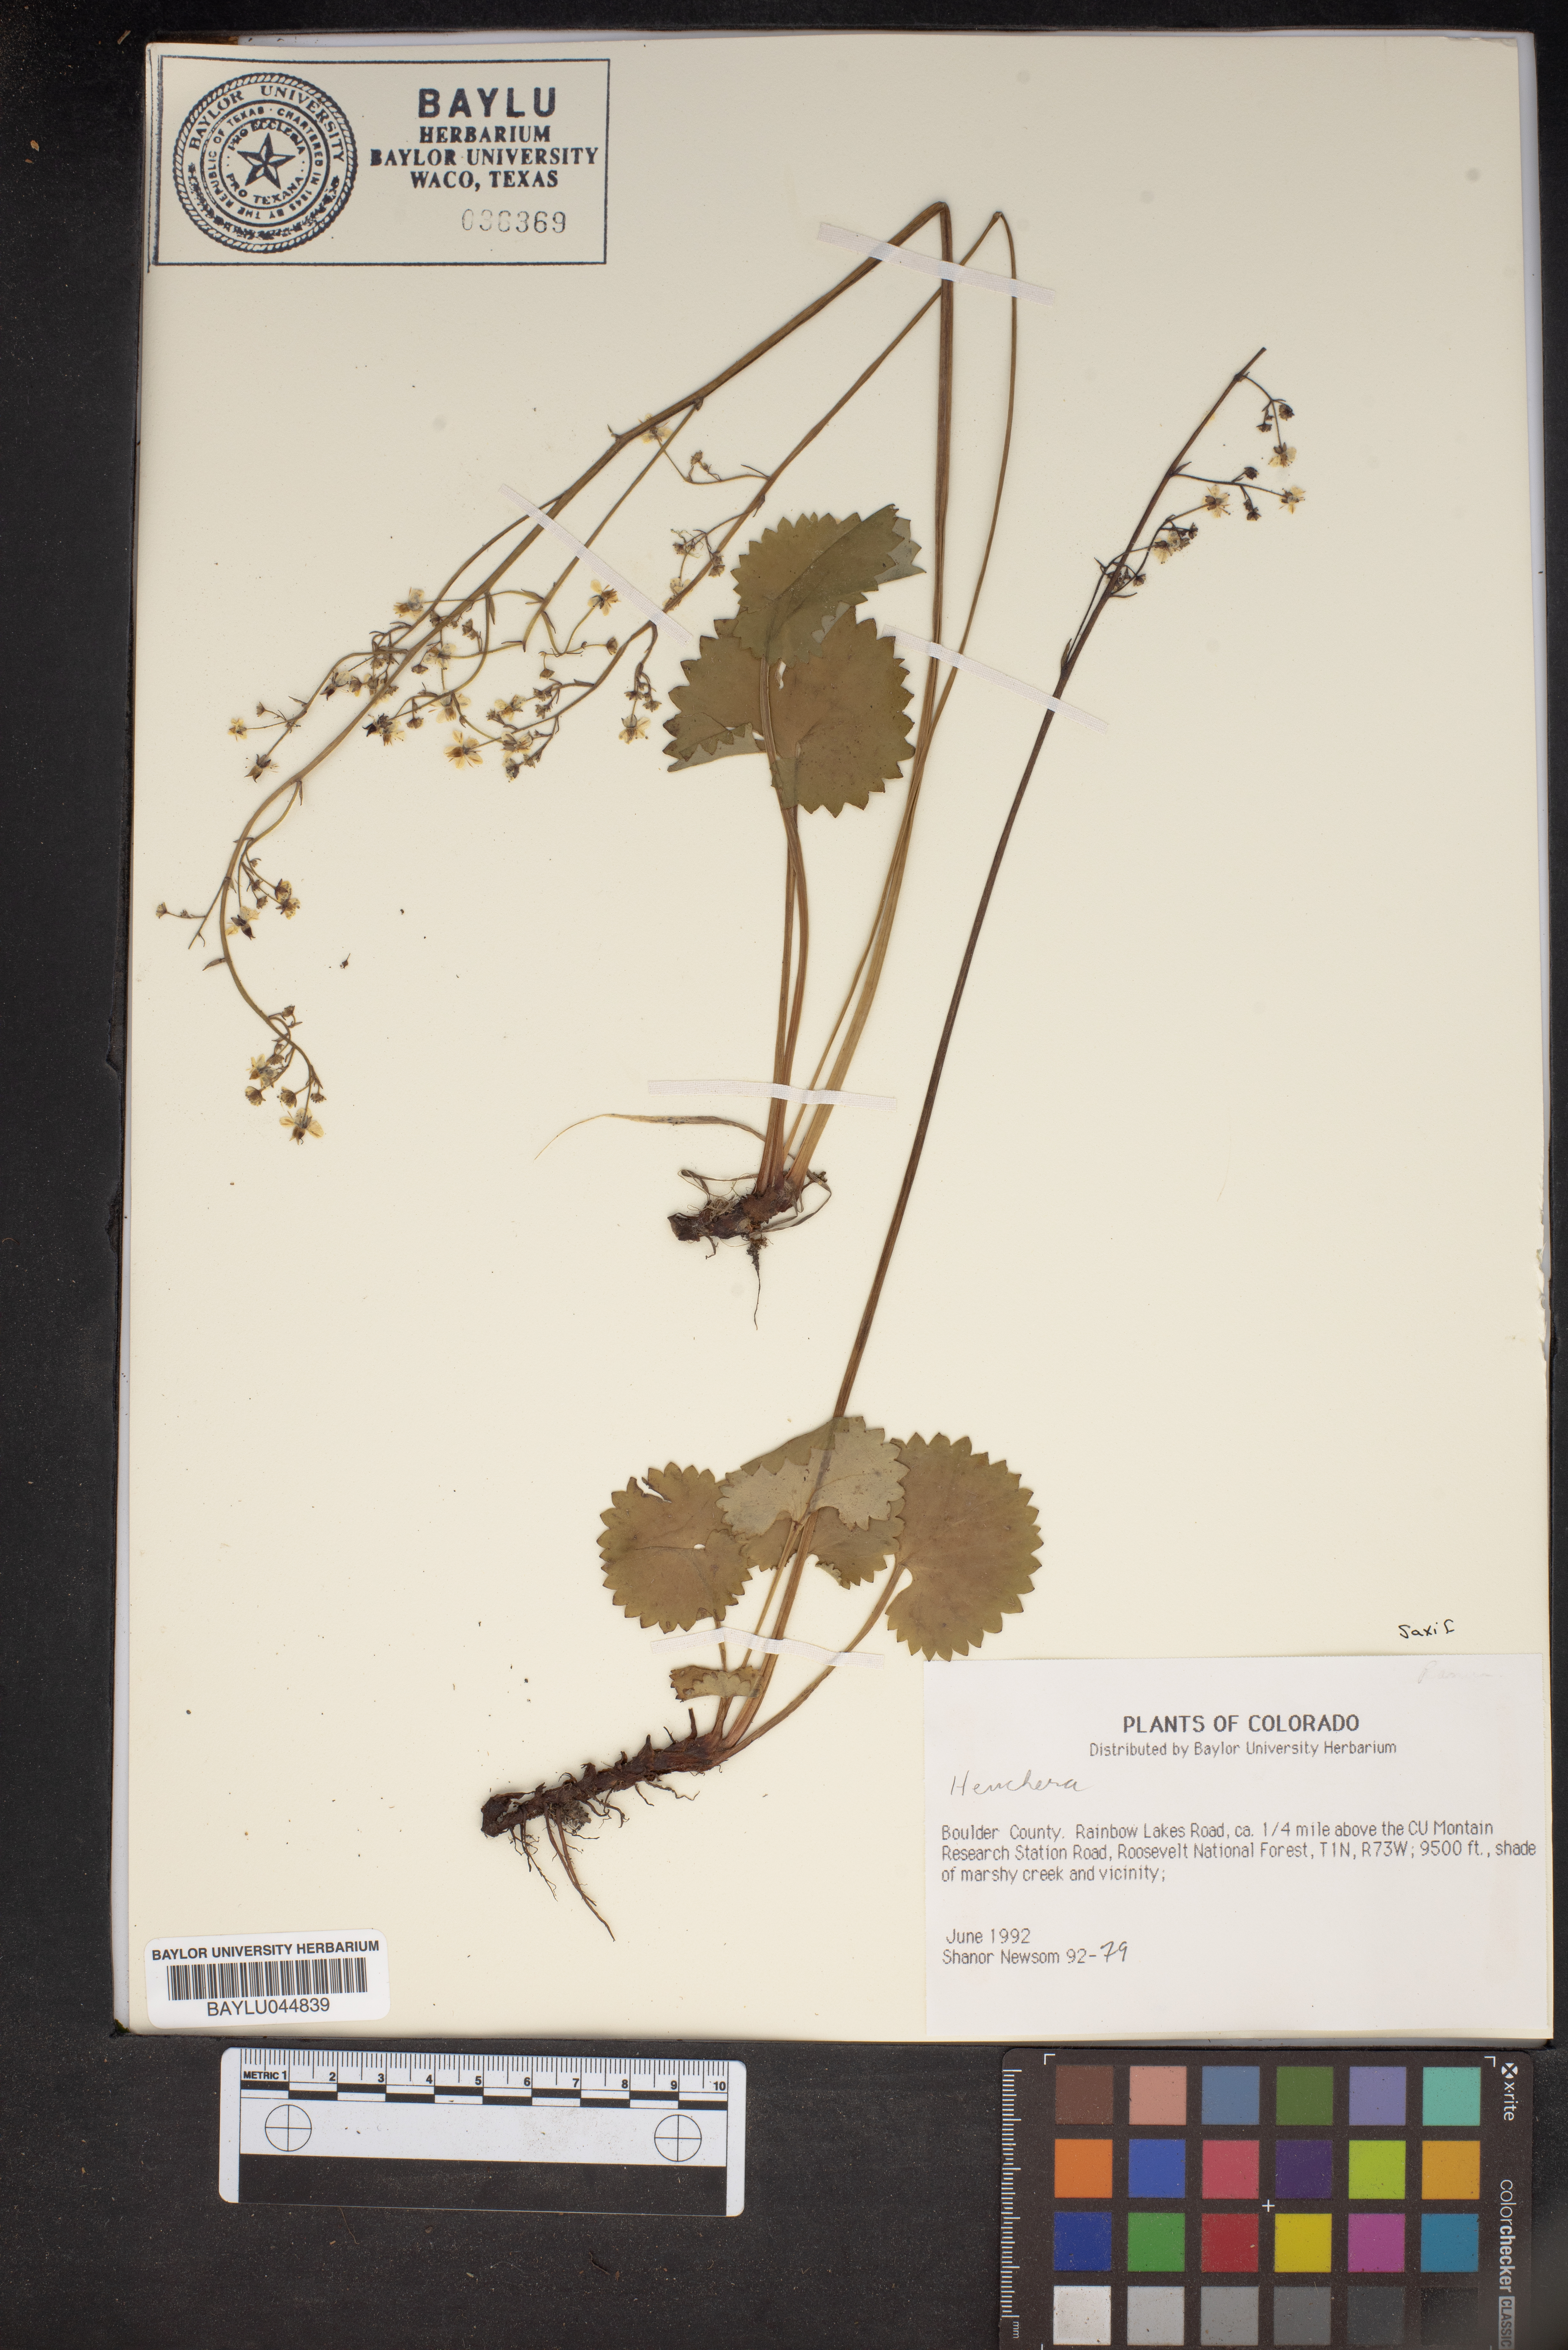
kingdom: Plantae
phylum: Tracheophyta
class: Magnoliopsida
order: Saxifragales
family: Saxifragaceae
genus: Heuchera
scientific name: Heuchera
